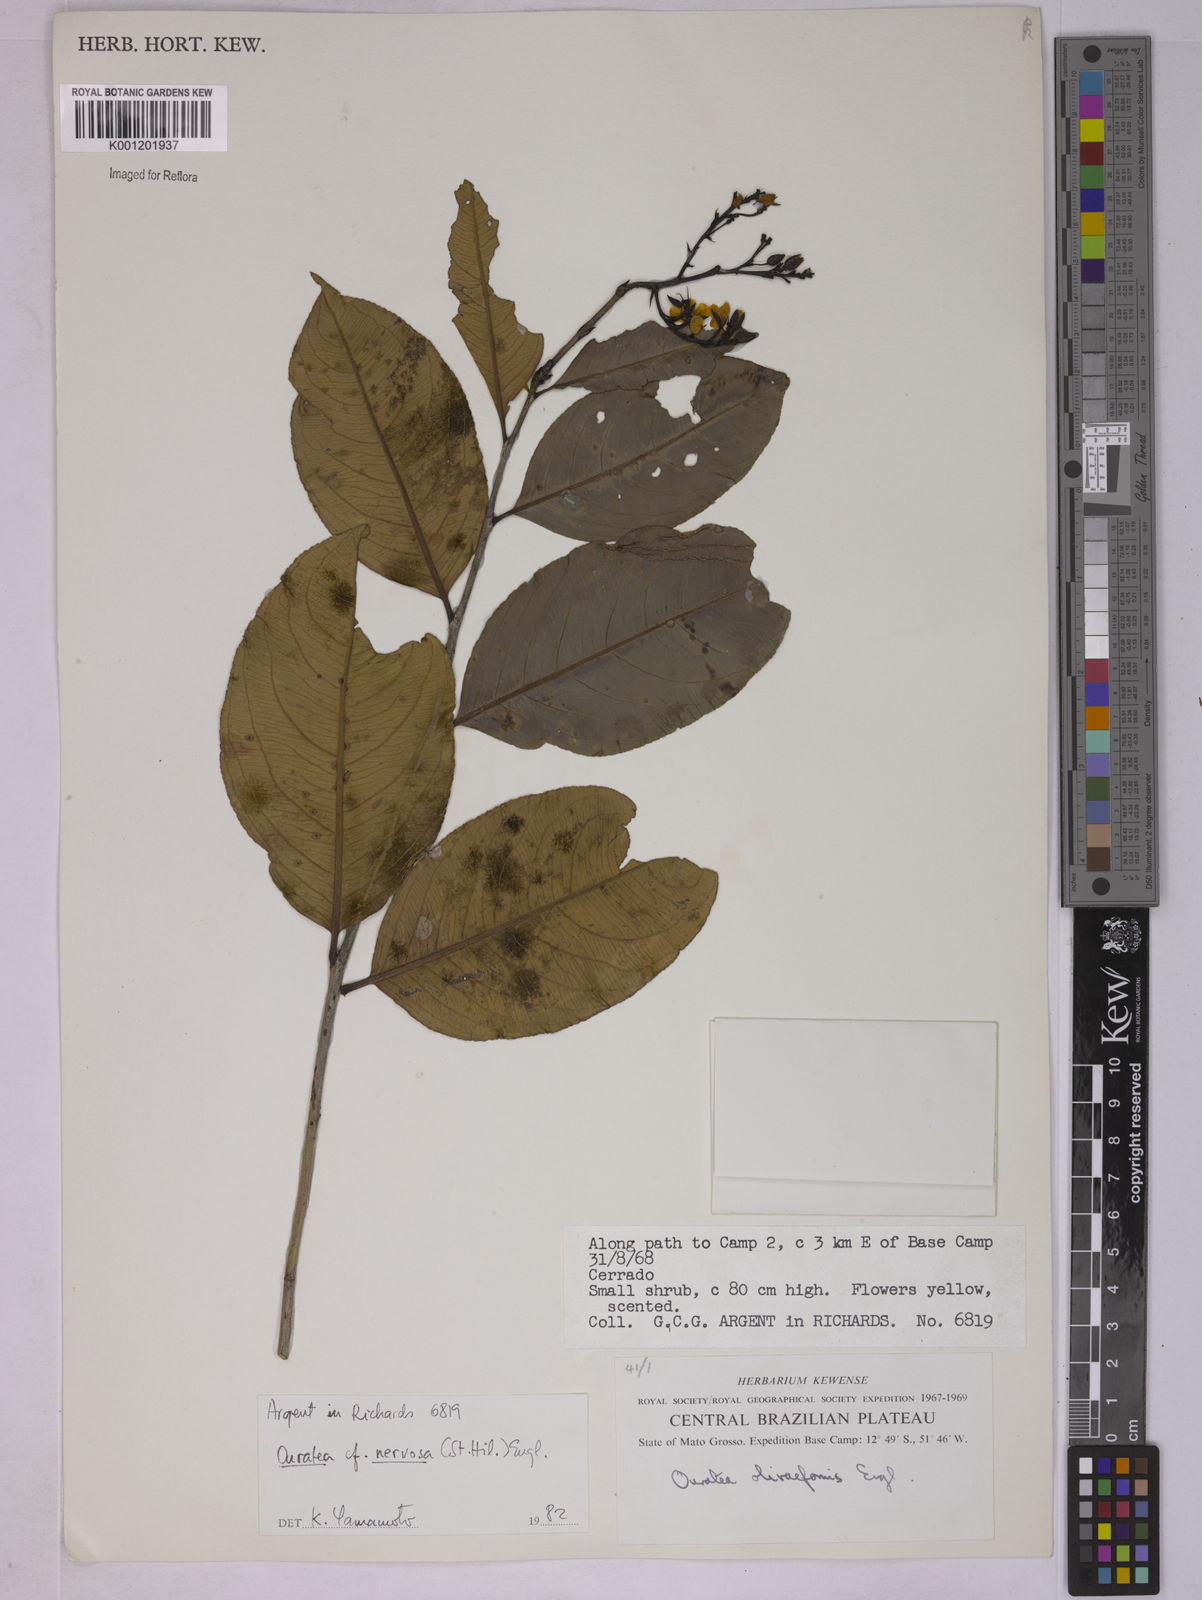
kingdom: Plantae
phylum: Tracheophyta
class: Magnoliopsida
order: Malpighiales
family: Ochnaceae
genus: Ouratea
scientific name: Ouratea nervosa
